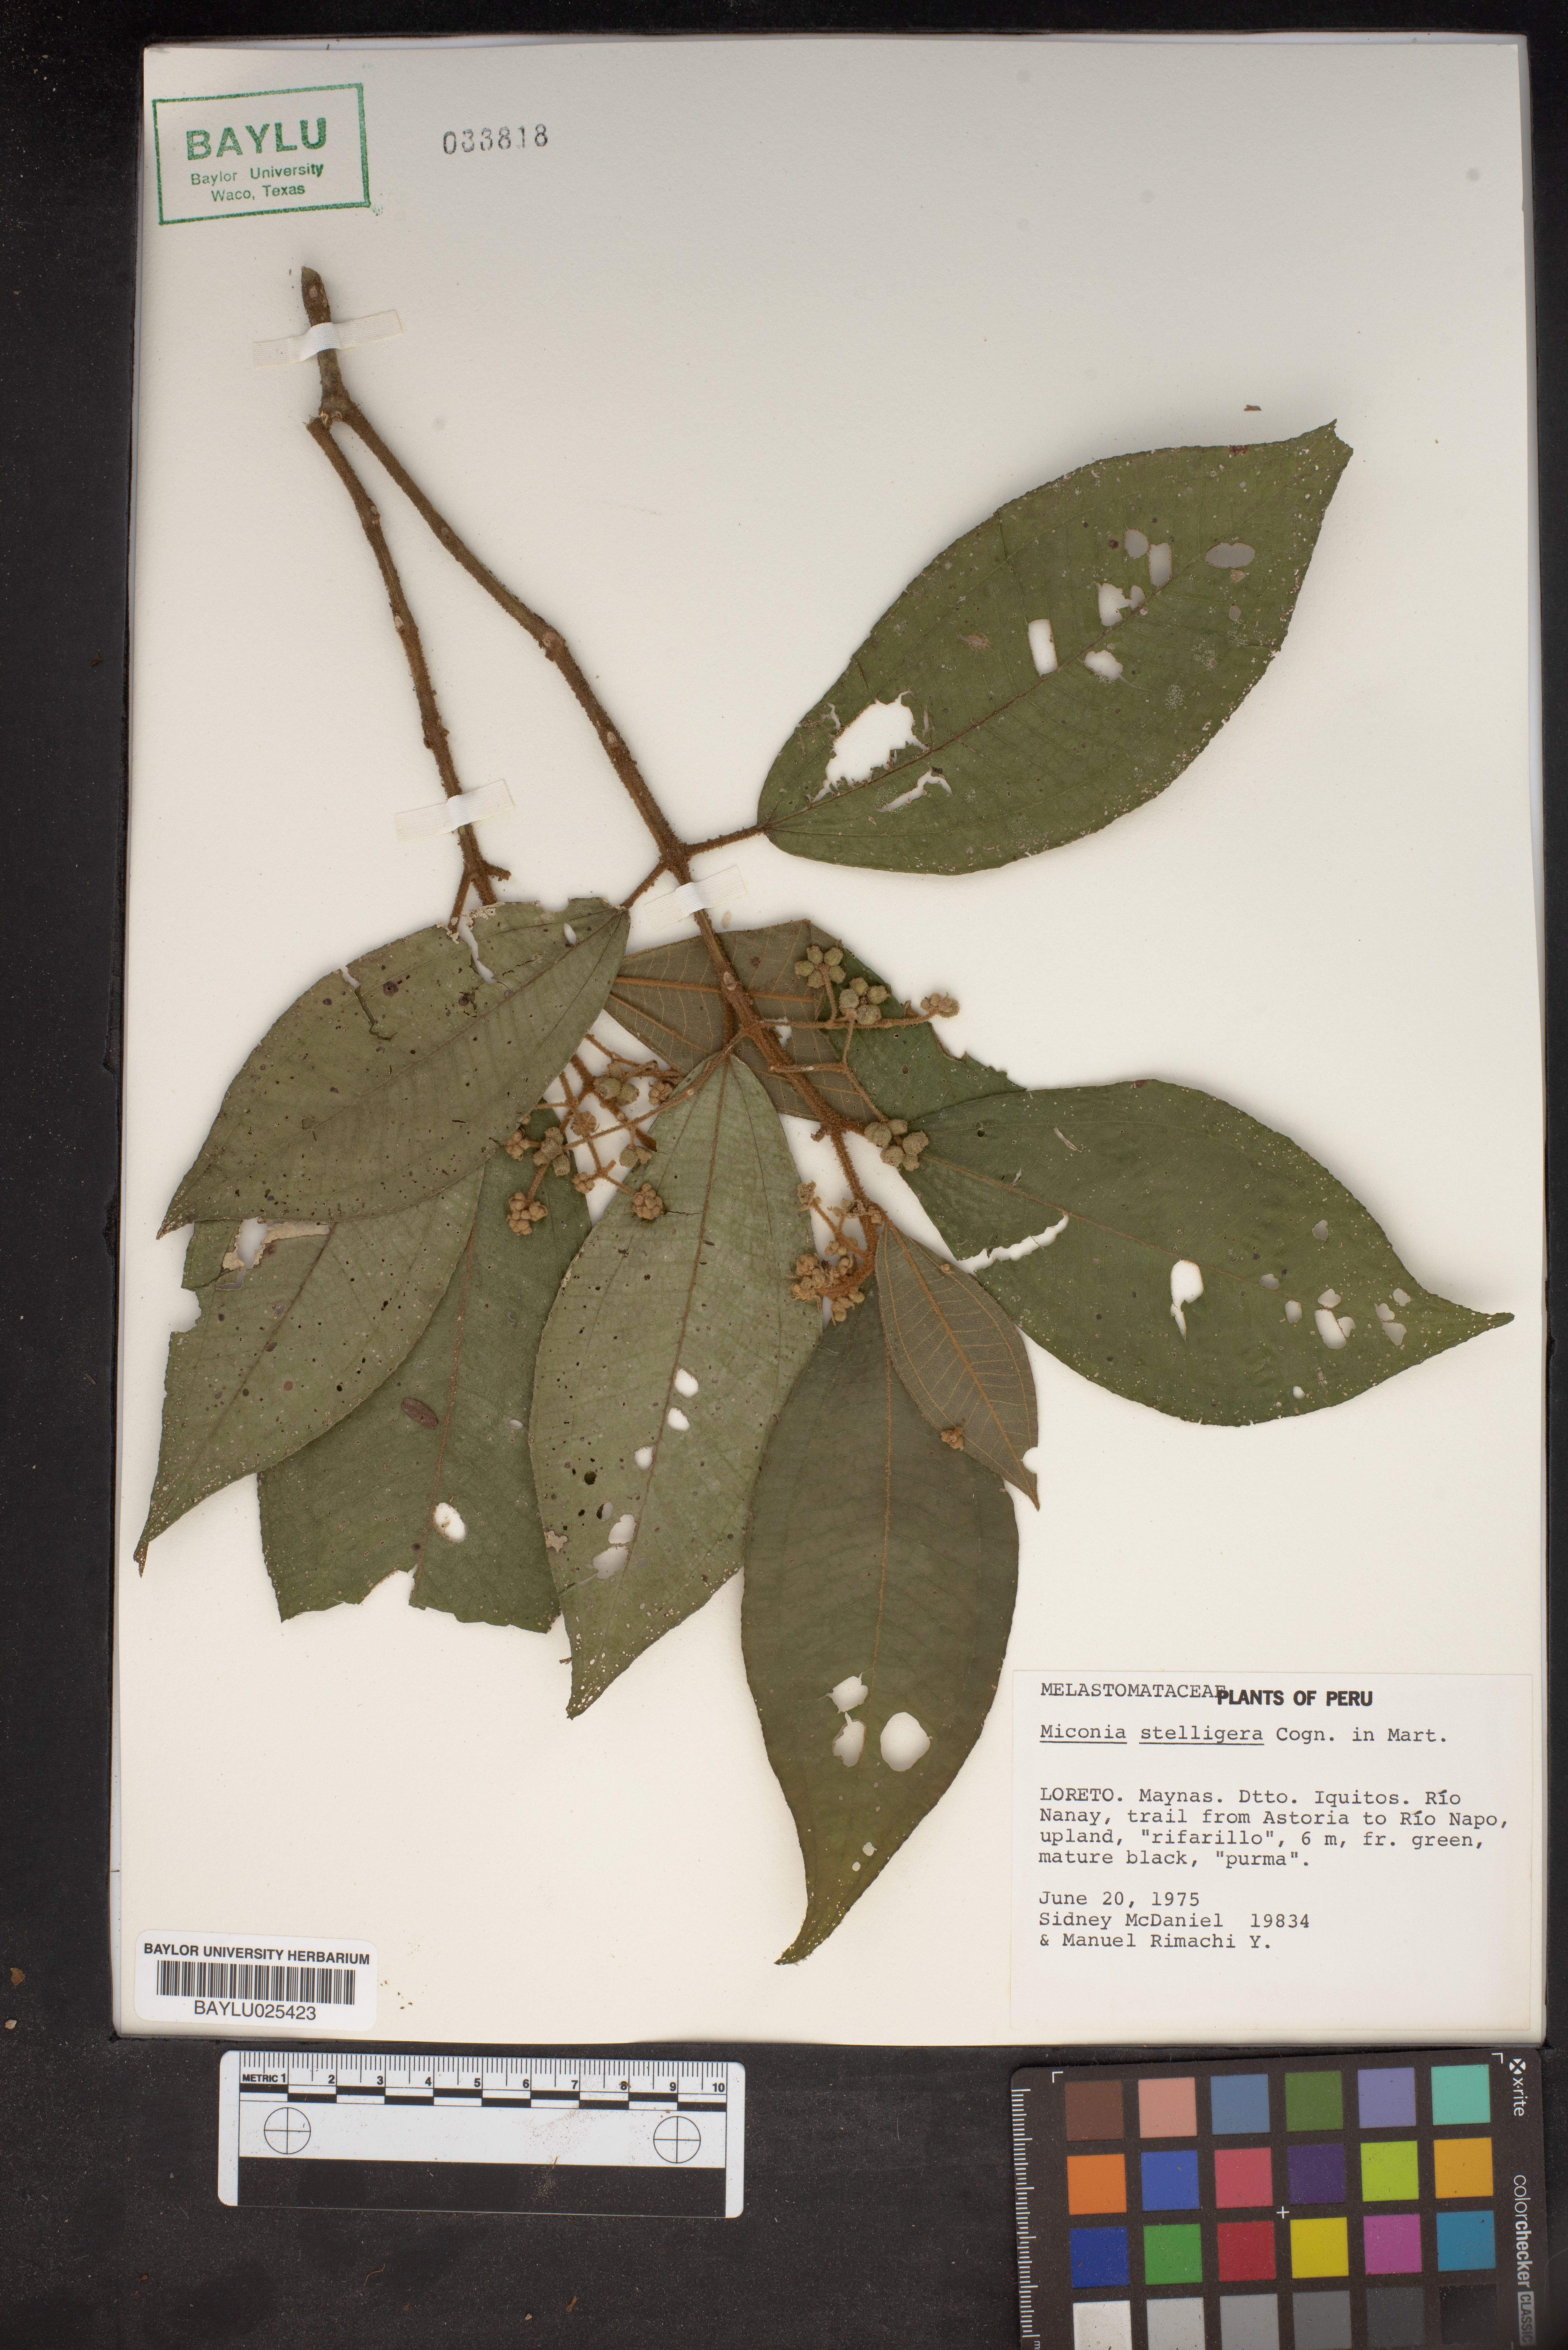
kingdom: Plantae
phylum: Tracheophyta
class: Magnoliopsida
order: Myrtales
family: Melastomataceae
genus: Miconia
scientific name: Miconia stelligera
